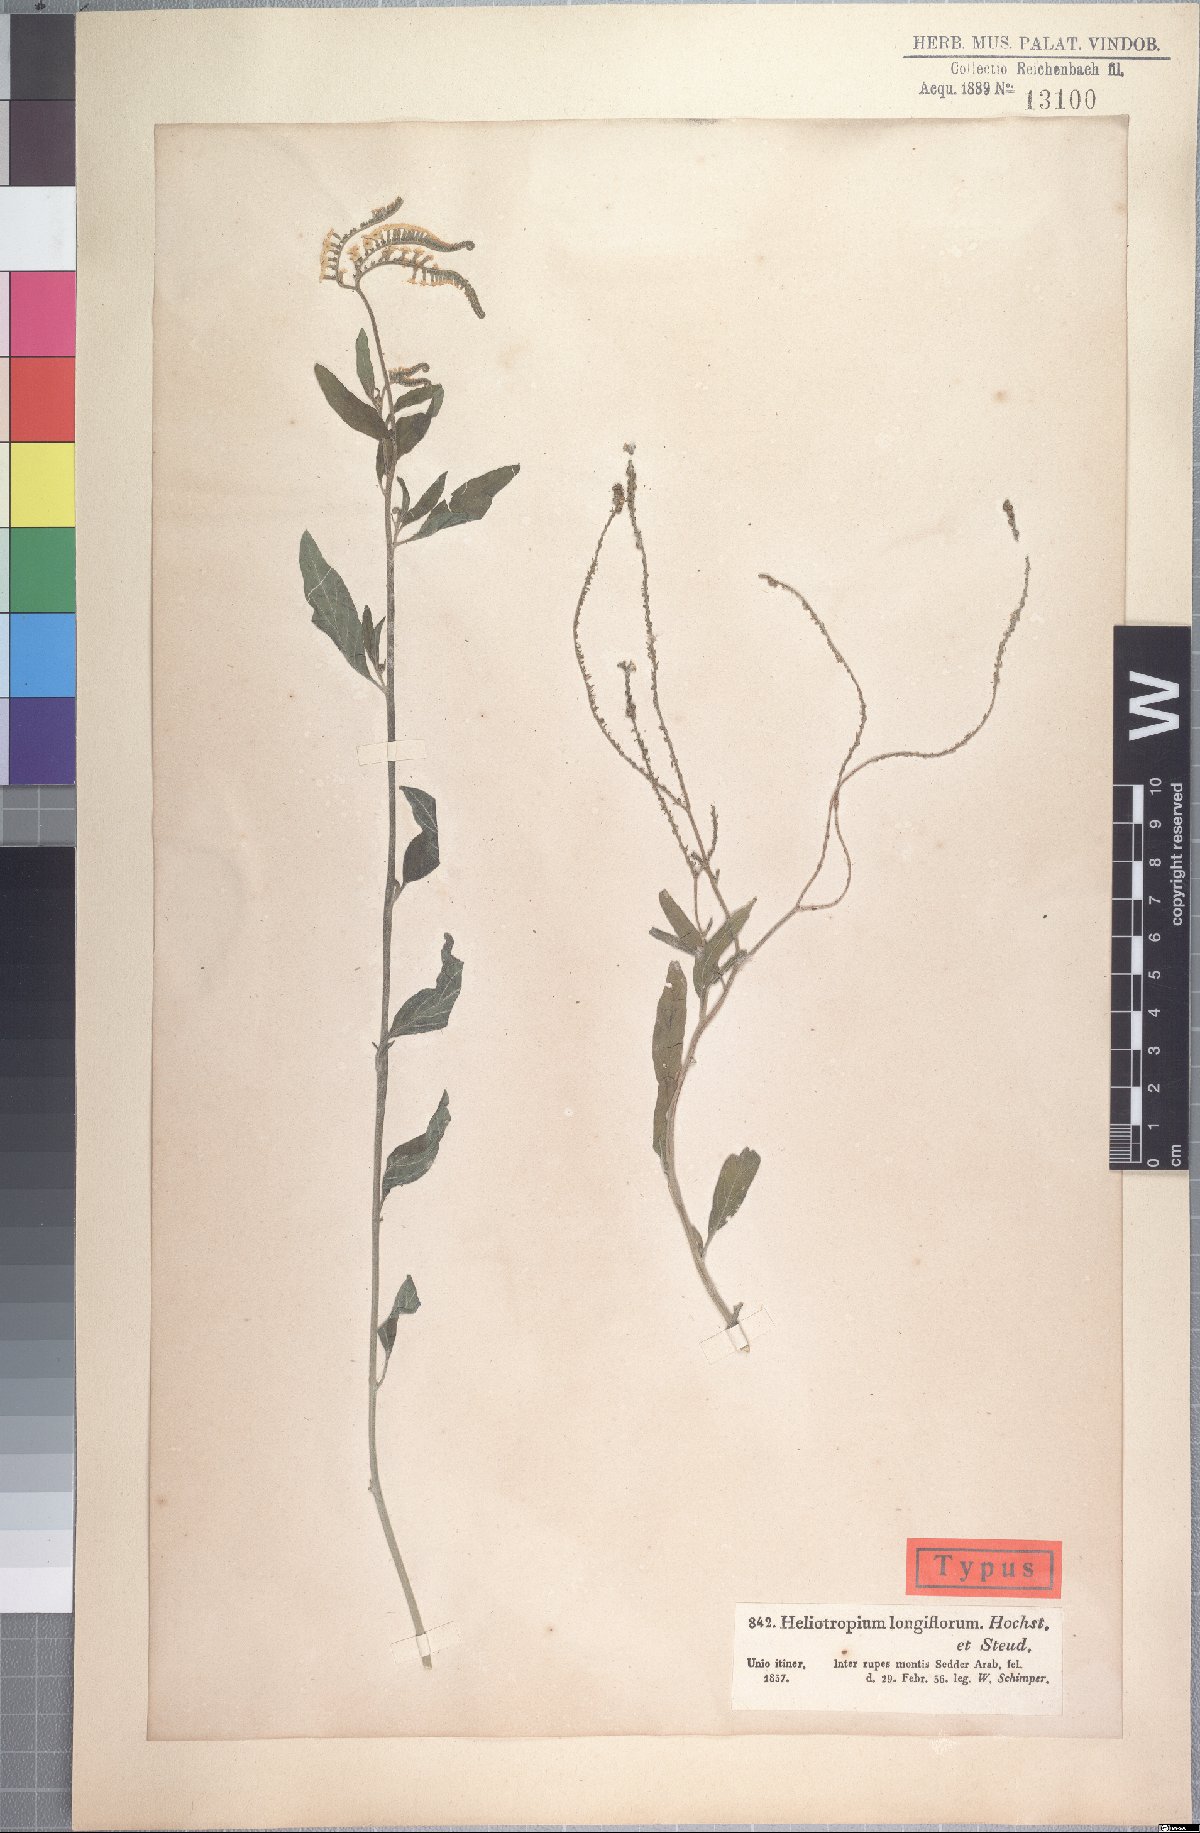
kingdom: Plantae
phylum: Tracheophyta
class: Magnoliopsida
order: Boraginales
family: Heliotropiaceae
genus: Heliotropium
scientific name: Heliotropium longiflorum
